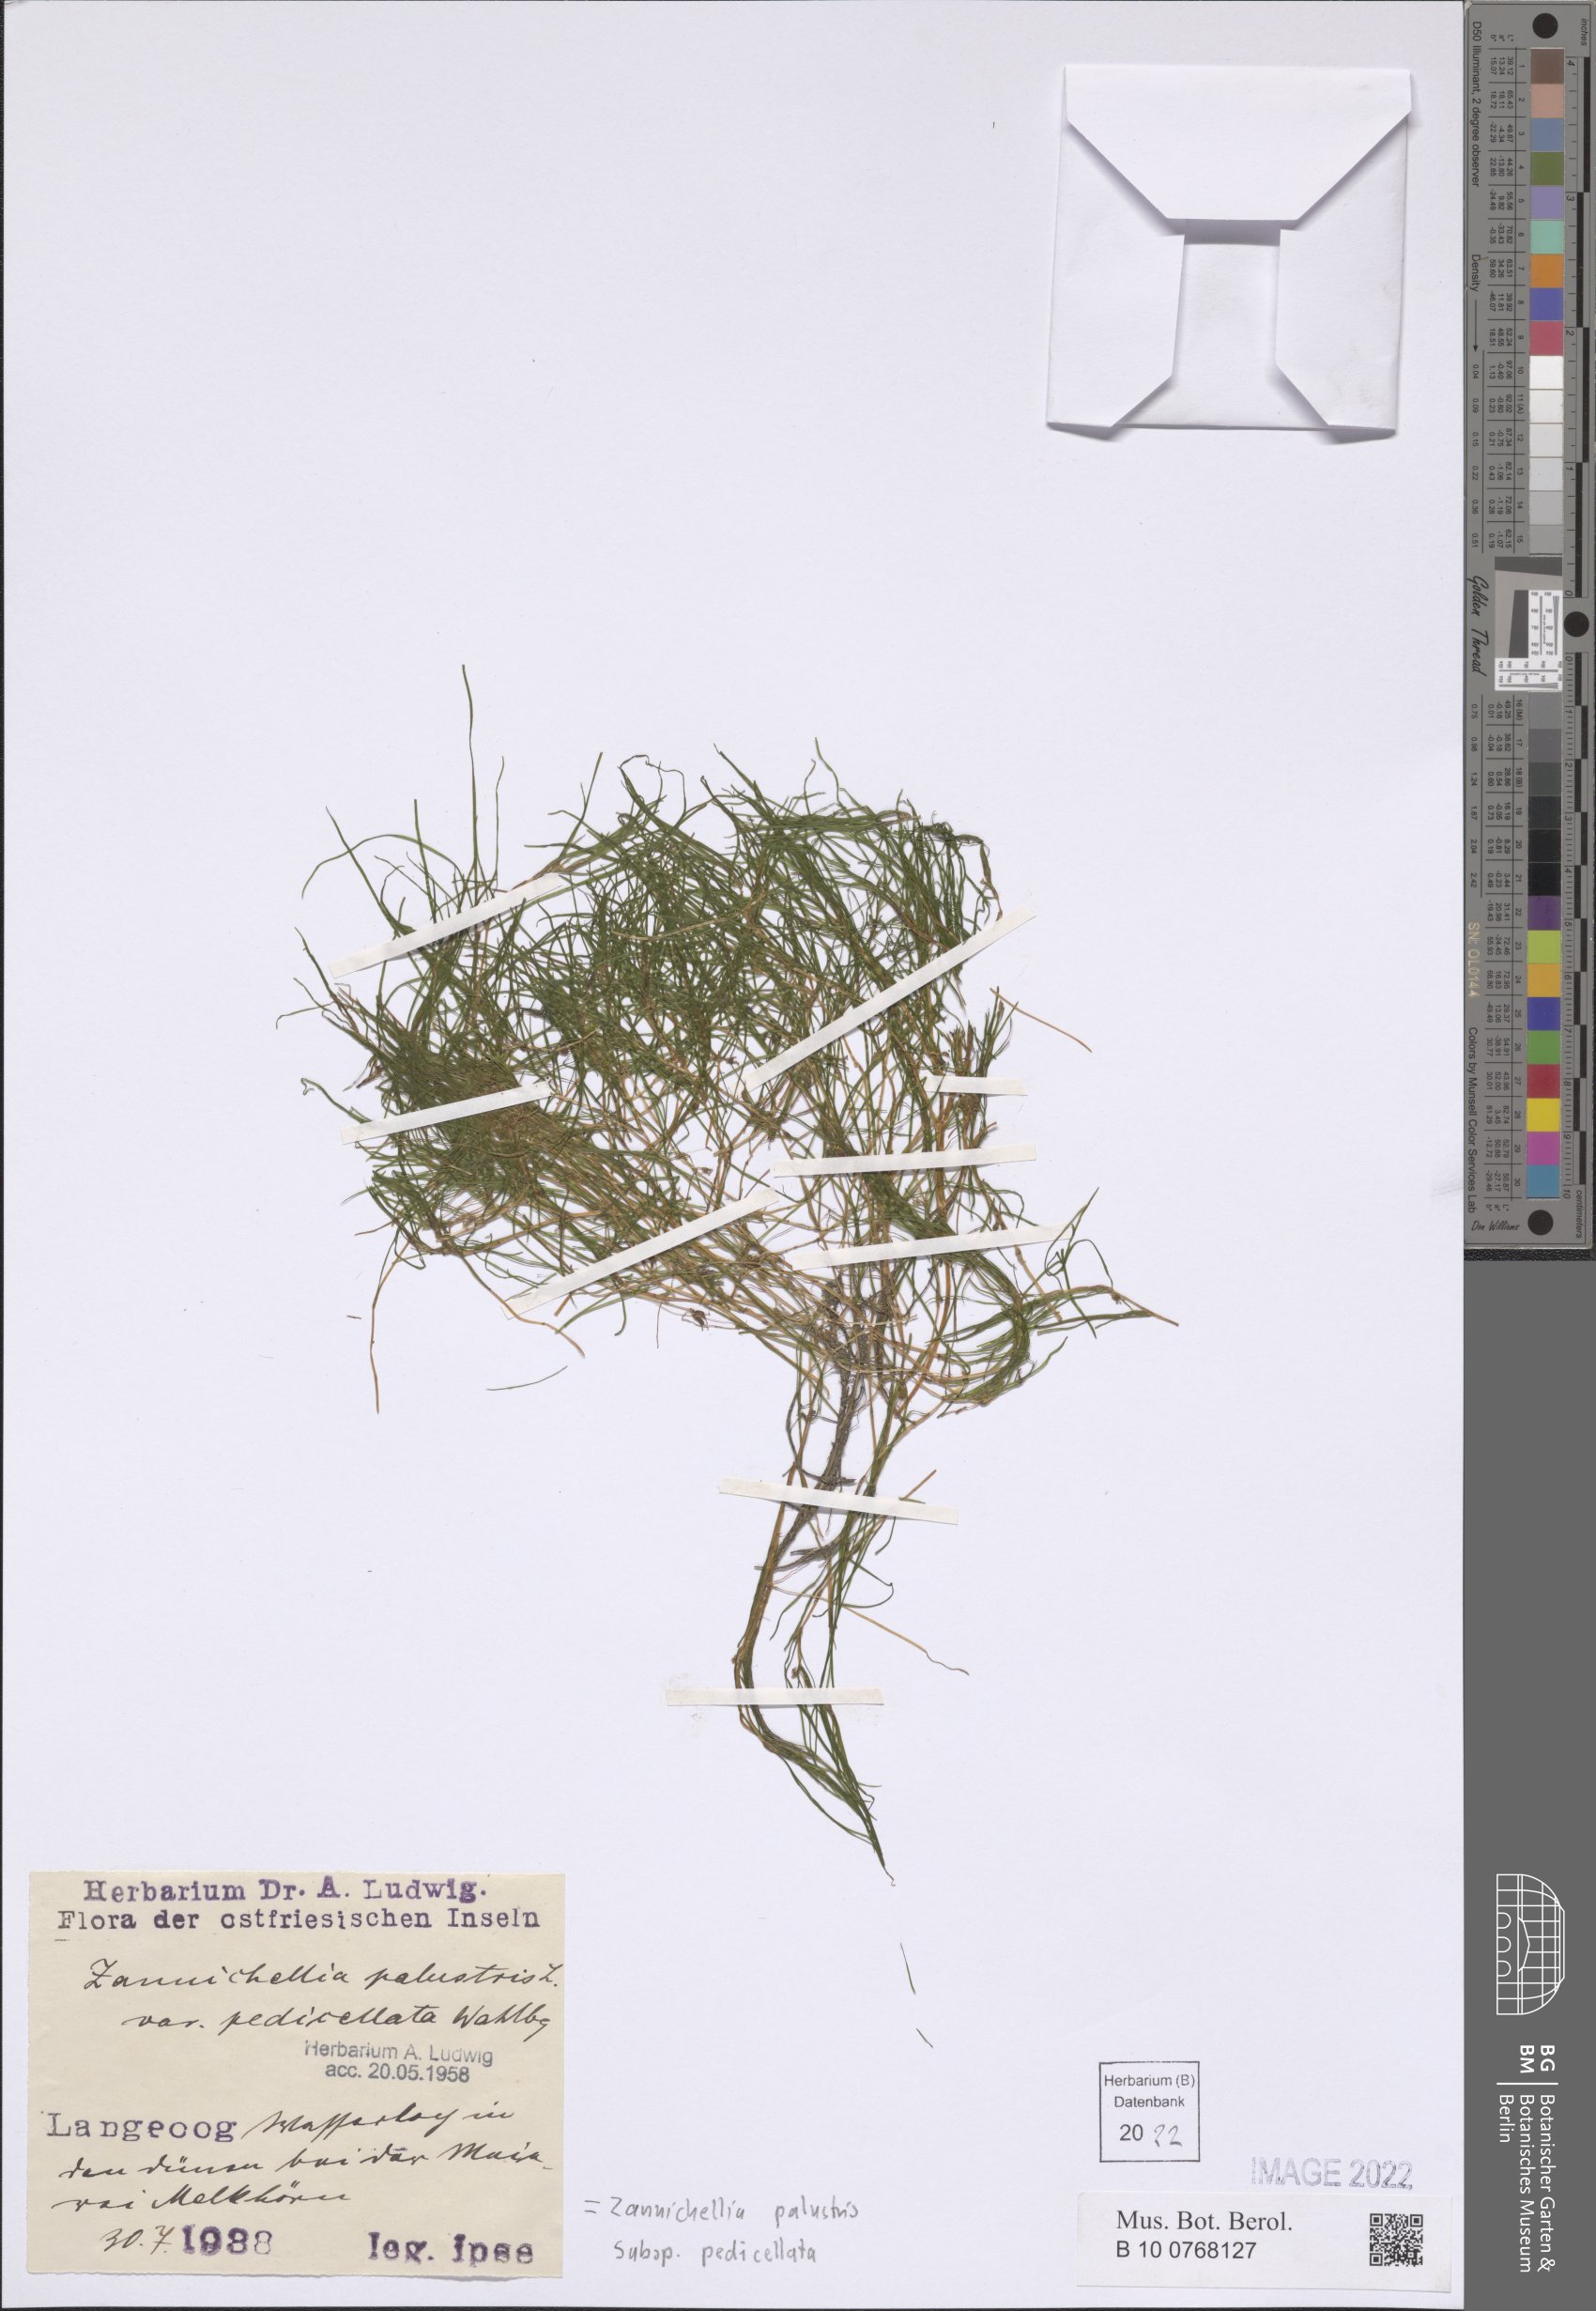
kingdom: Plantae
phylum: Tracheophyta
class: Liliopsida
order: Alismatales
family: Potamogetonaceae
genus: Zannichellia
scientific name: Zannichellia palustris
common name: Horned pondweed
